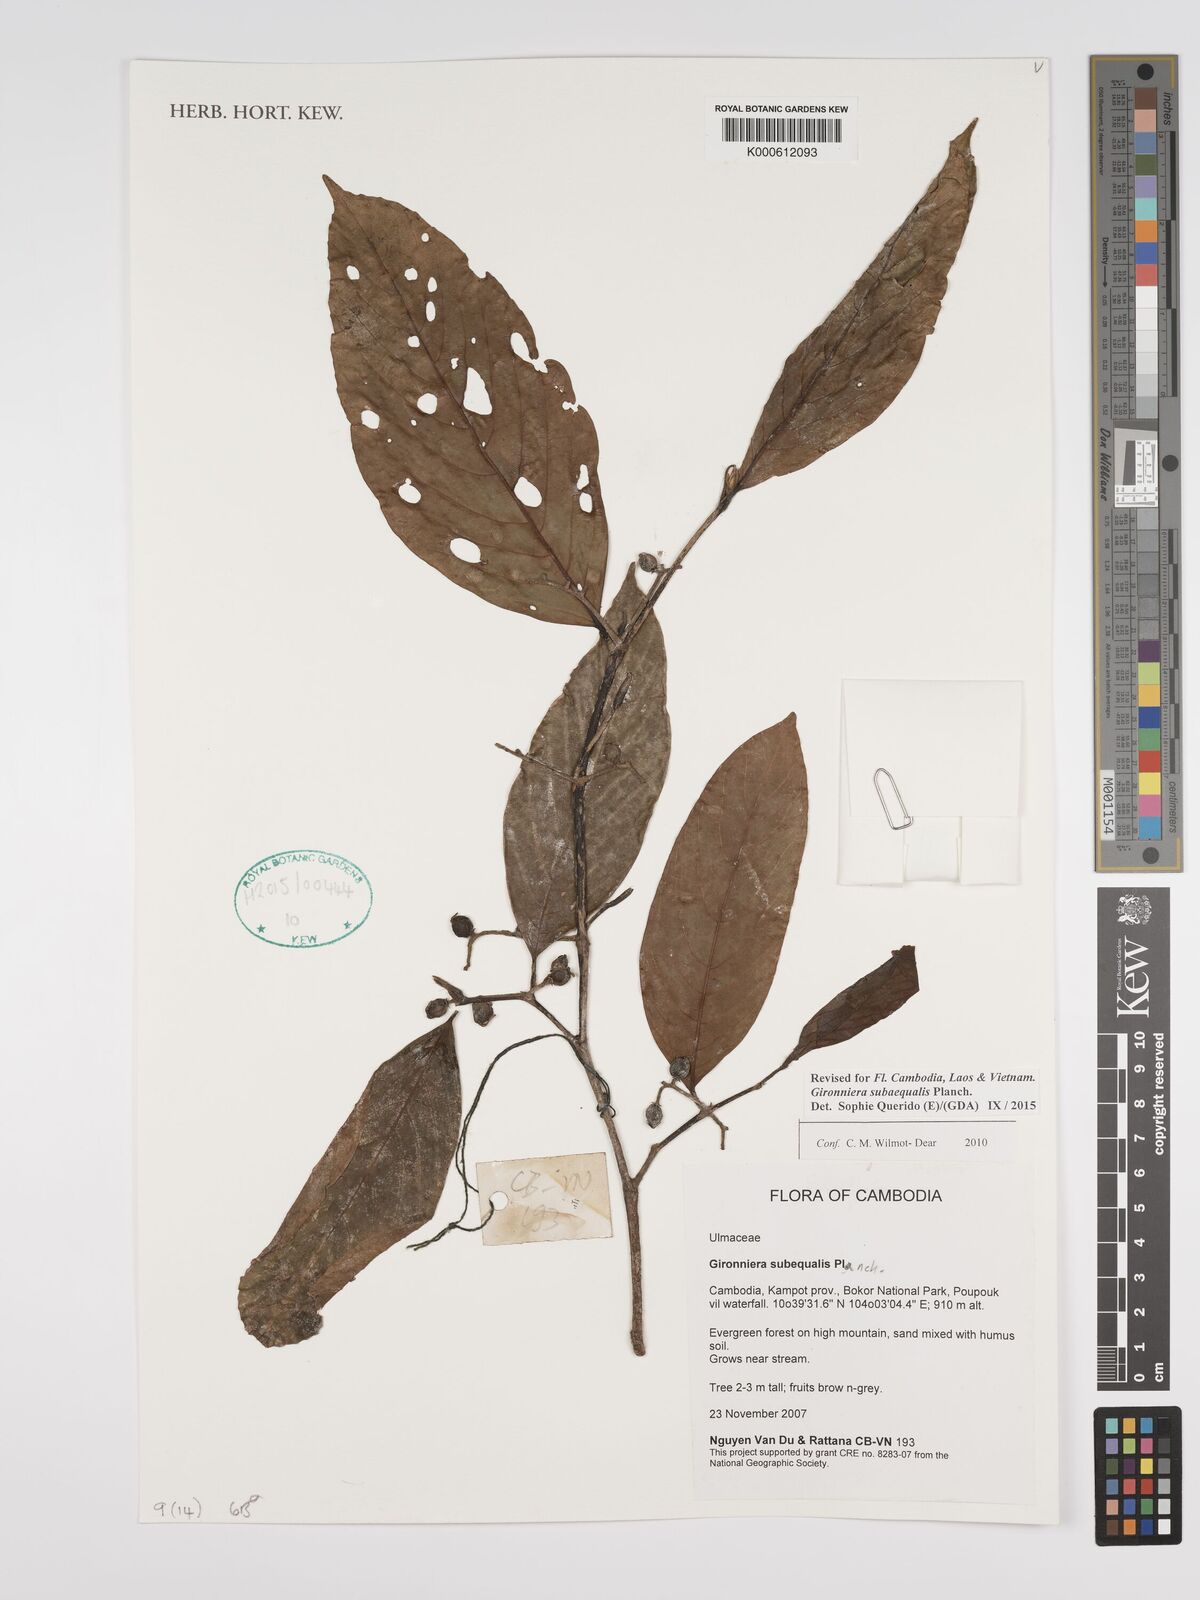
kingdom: Plantae
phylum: Tracheophyta
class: Magnoliopsida
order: Rosales
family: Cannabaceae
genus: Gironniera
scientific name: Gironniera subaequalis
